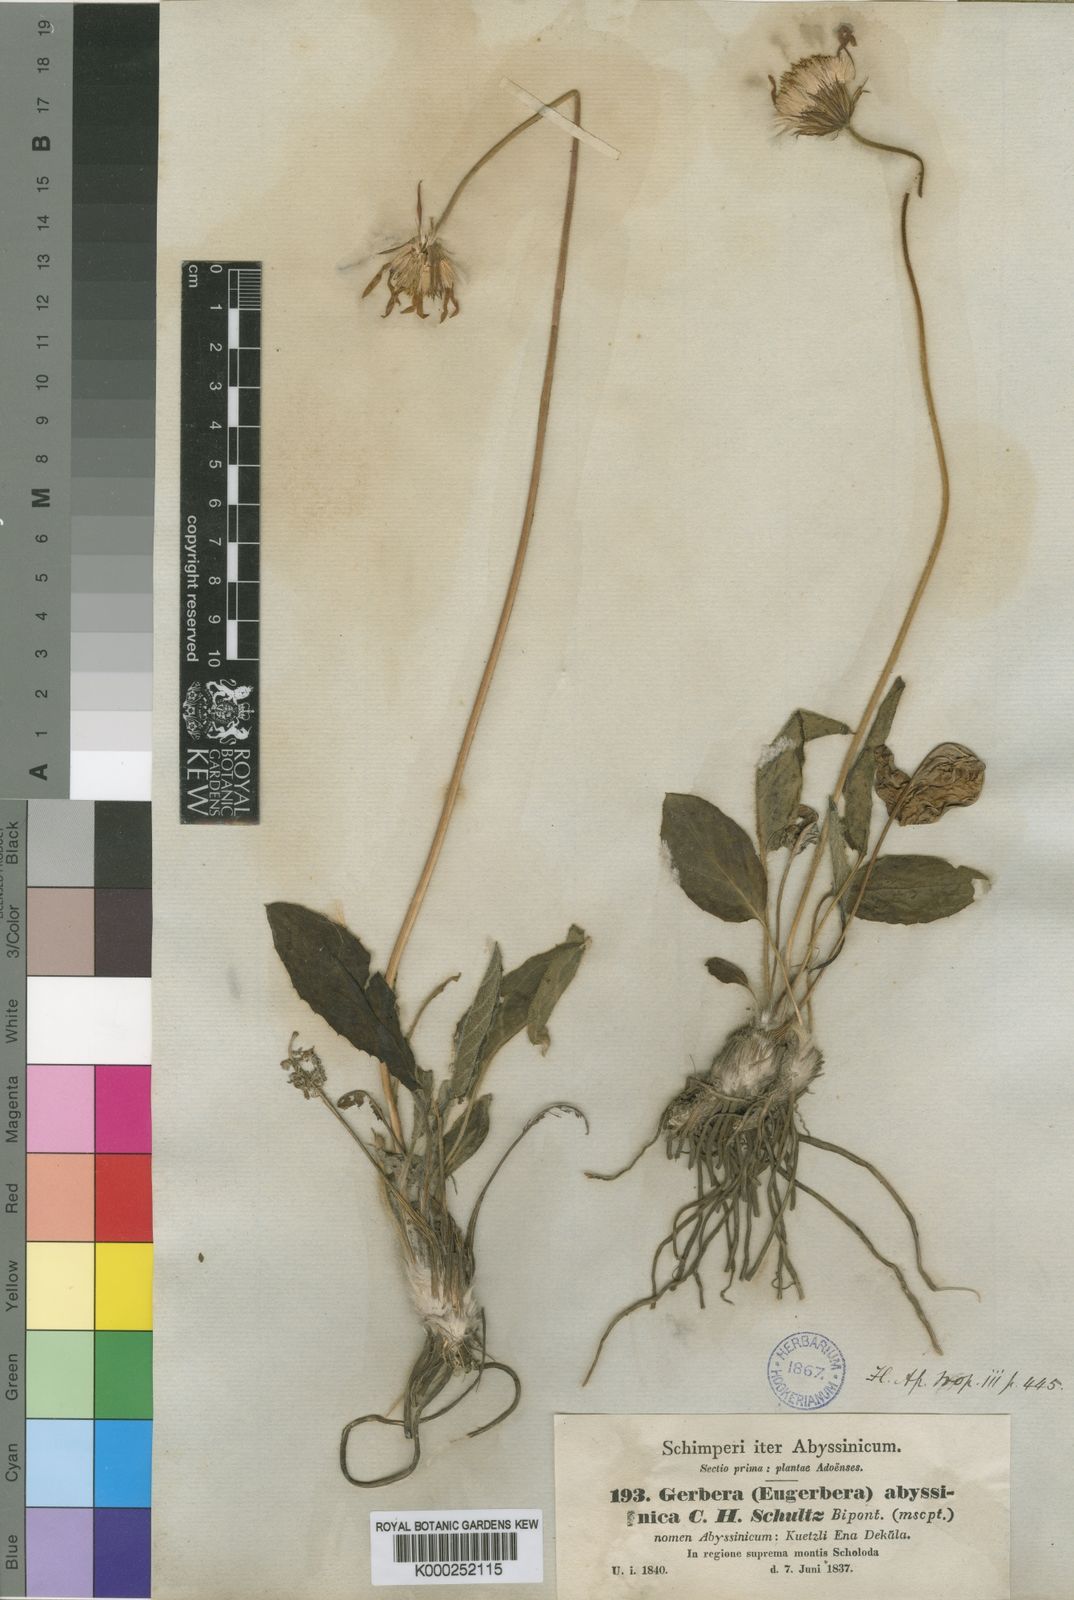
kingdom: Plantae
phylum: Tracheophyta
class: Magnoliopsida
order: Asterales
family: Asteraceae
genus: Gerbera
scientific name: Gerbera viridifolia
